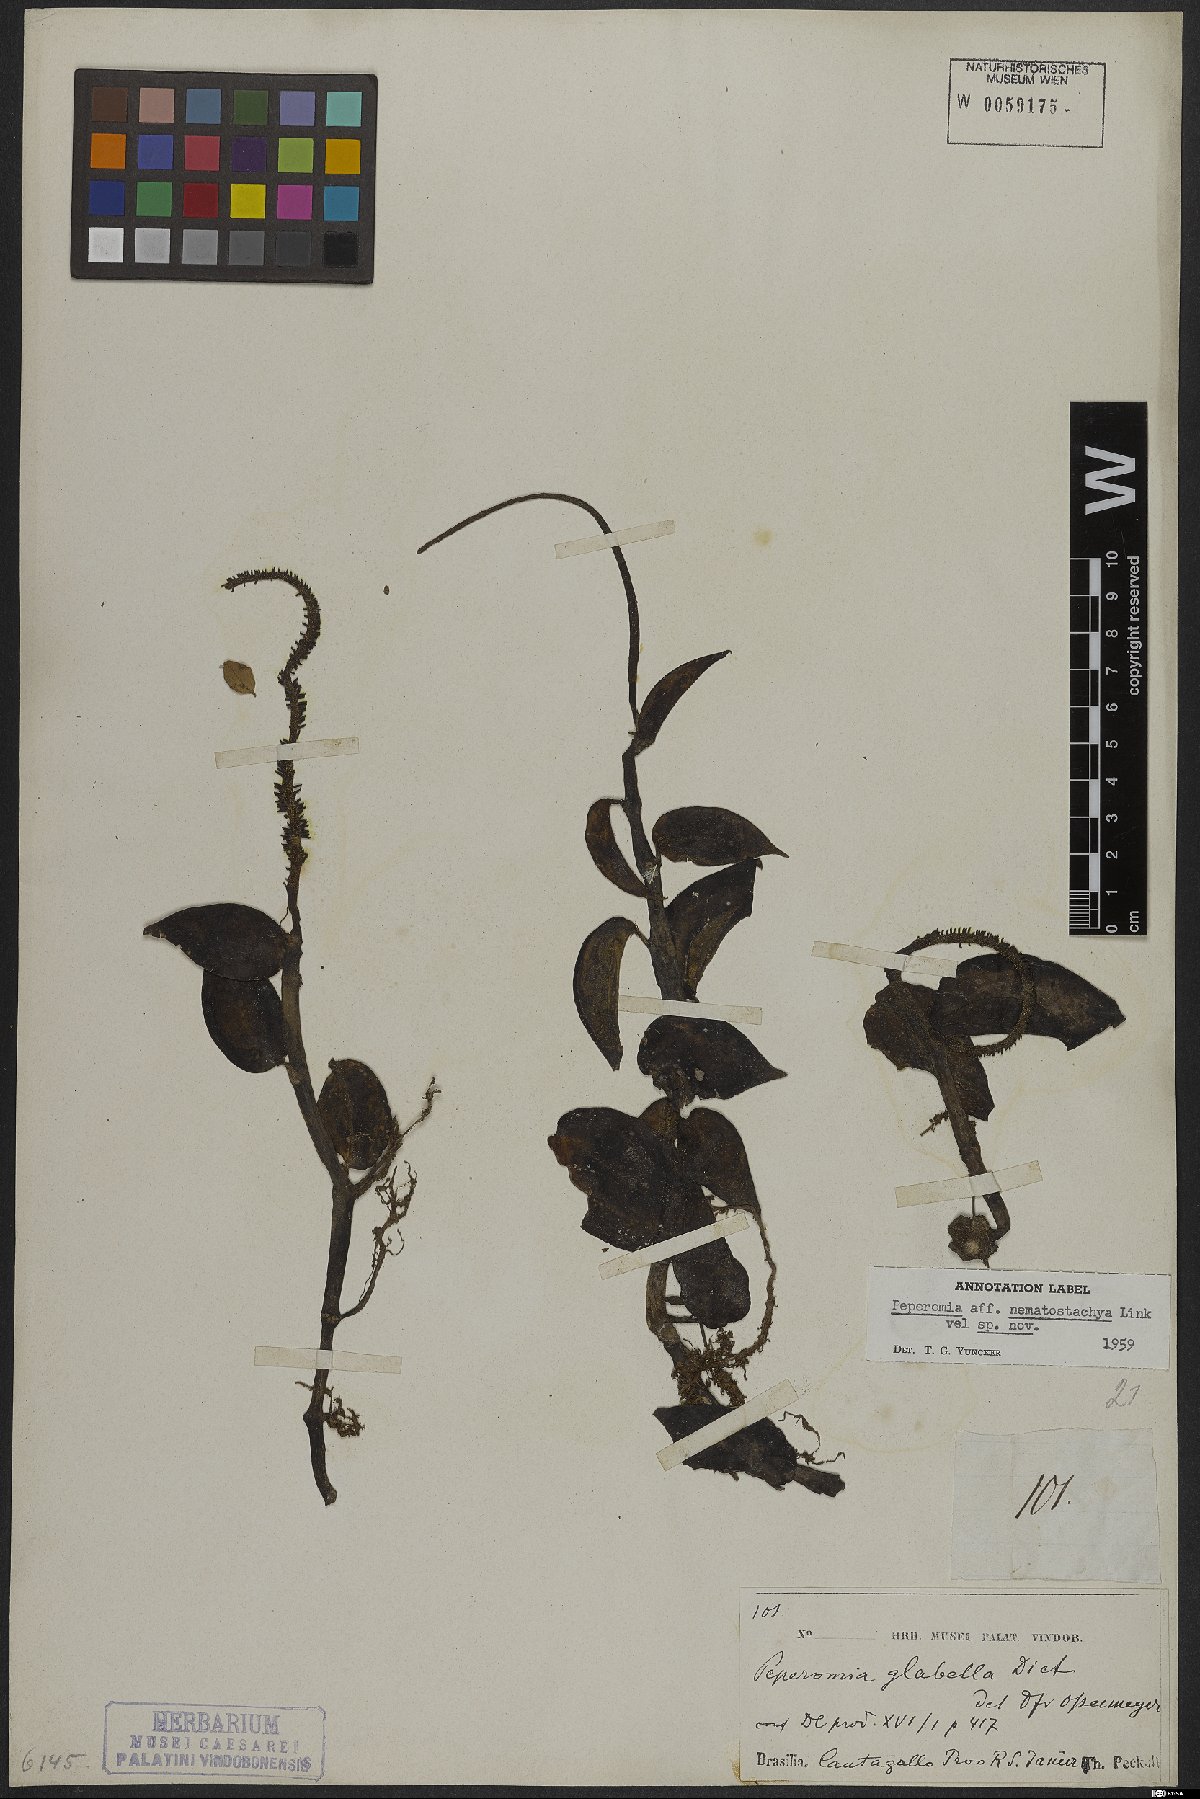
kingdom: Plantae
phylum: Tracheophyta
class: Magnoliopsida
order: Piperales
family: Piperaceae
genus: Peperomia
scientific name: Peperomia macrostachyos
